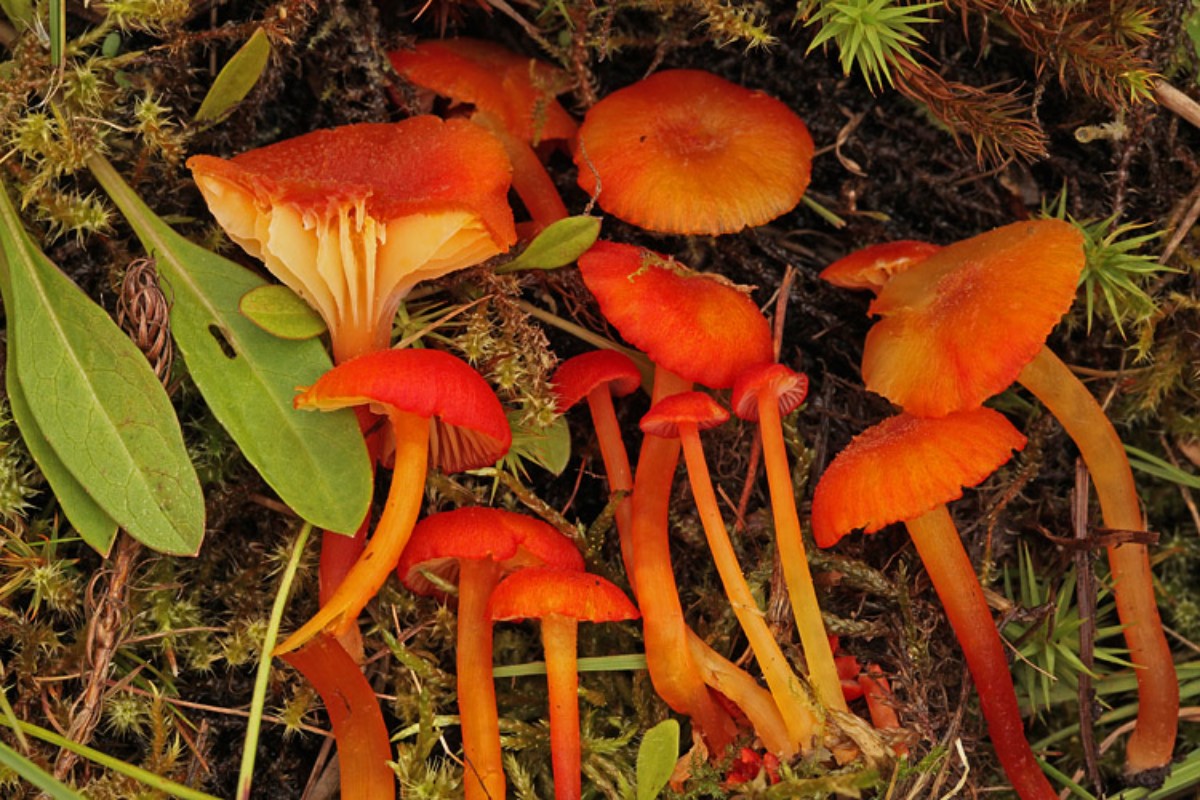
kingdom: Fungi
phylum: Basidiomycota
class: Agaricomycetes
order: Agaricales
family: Hygrophoraceae
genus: Hygrocybe
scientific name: Hygrocybe coccineocrenata
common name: tørvemos-vokshat
